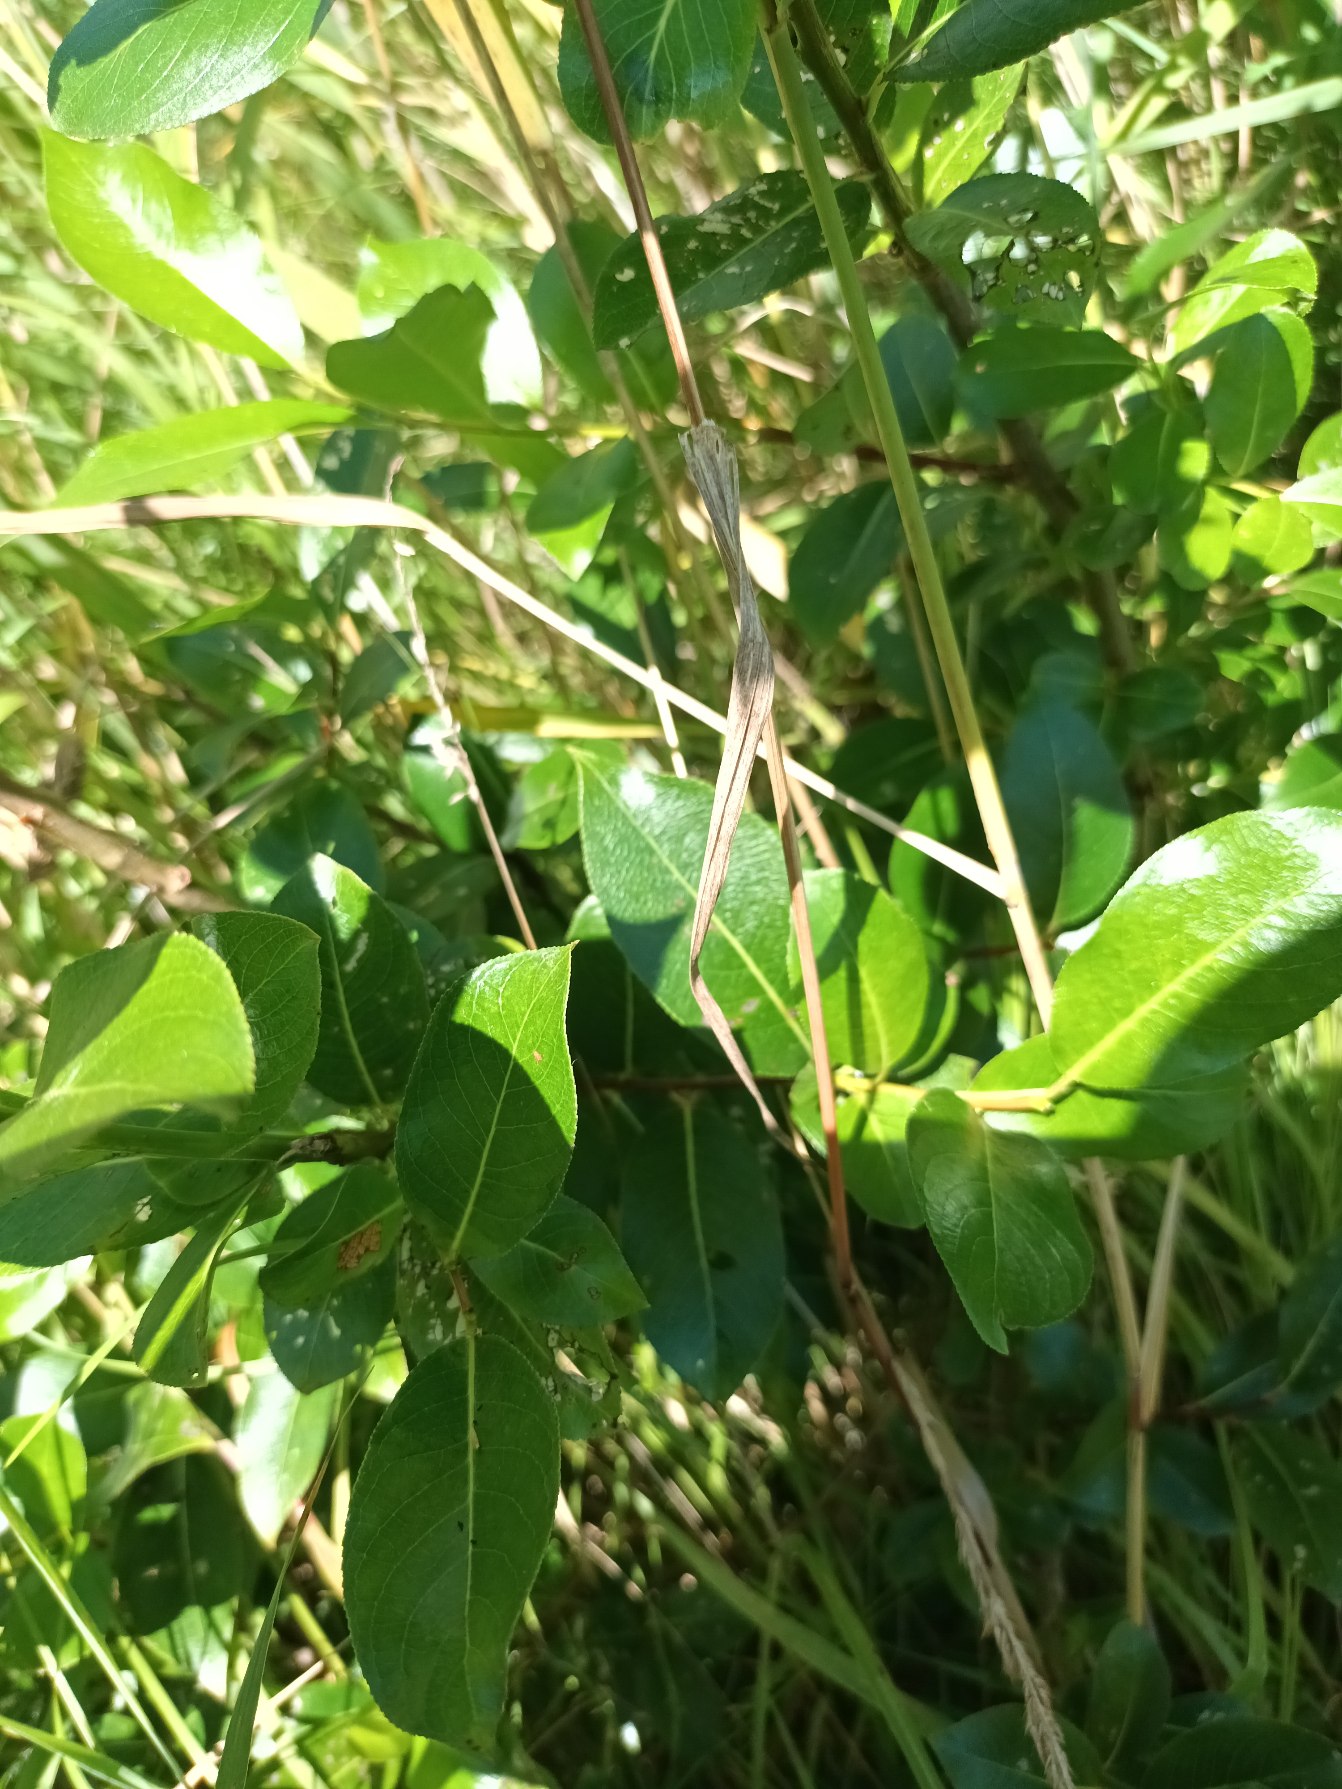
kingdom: Plantae
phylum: Tracheophyta
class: Magnoliopsida
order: Malpighiales
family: Salicaceae
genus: Salix
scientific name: Salix pentandra
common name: Femhannet pil
